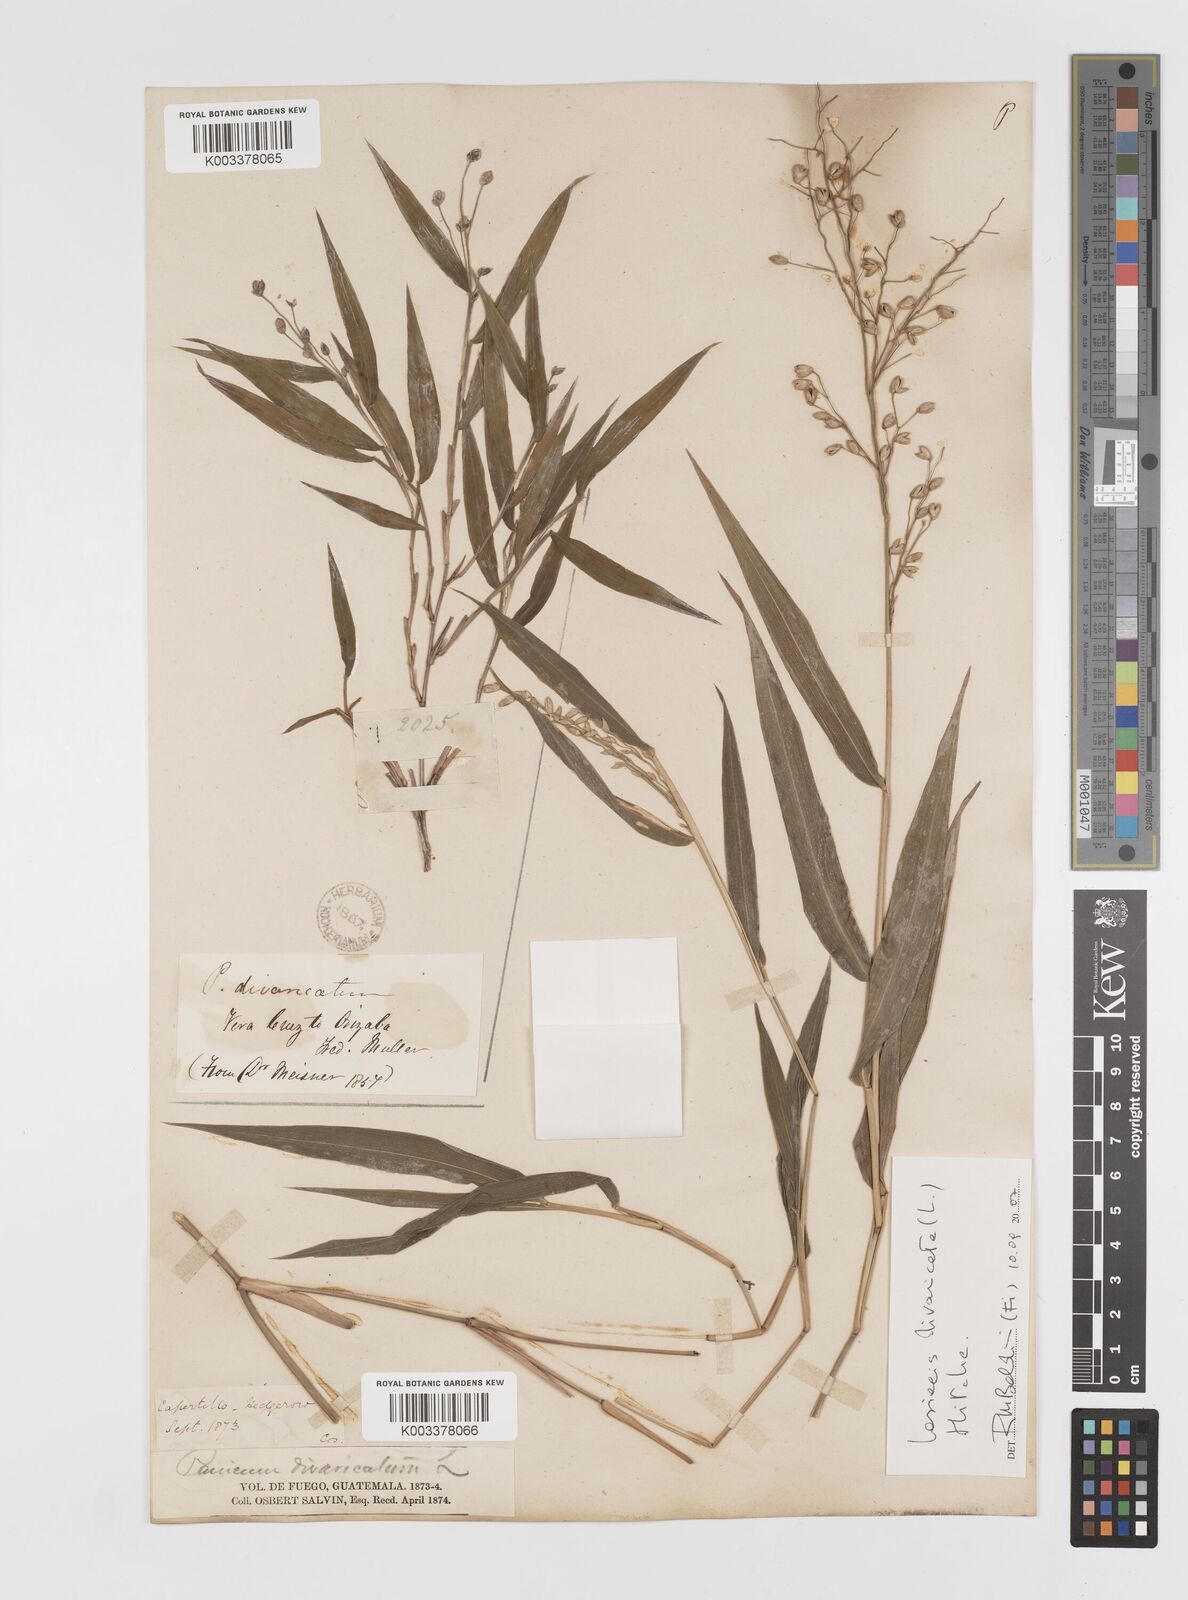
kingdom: Plantae
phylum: Tracheophyta
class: Liliopsida
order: Poales
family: Poaceae
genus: Lasiacis
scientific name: Lasiacis divaricata
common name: Smallcane
